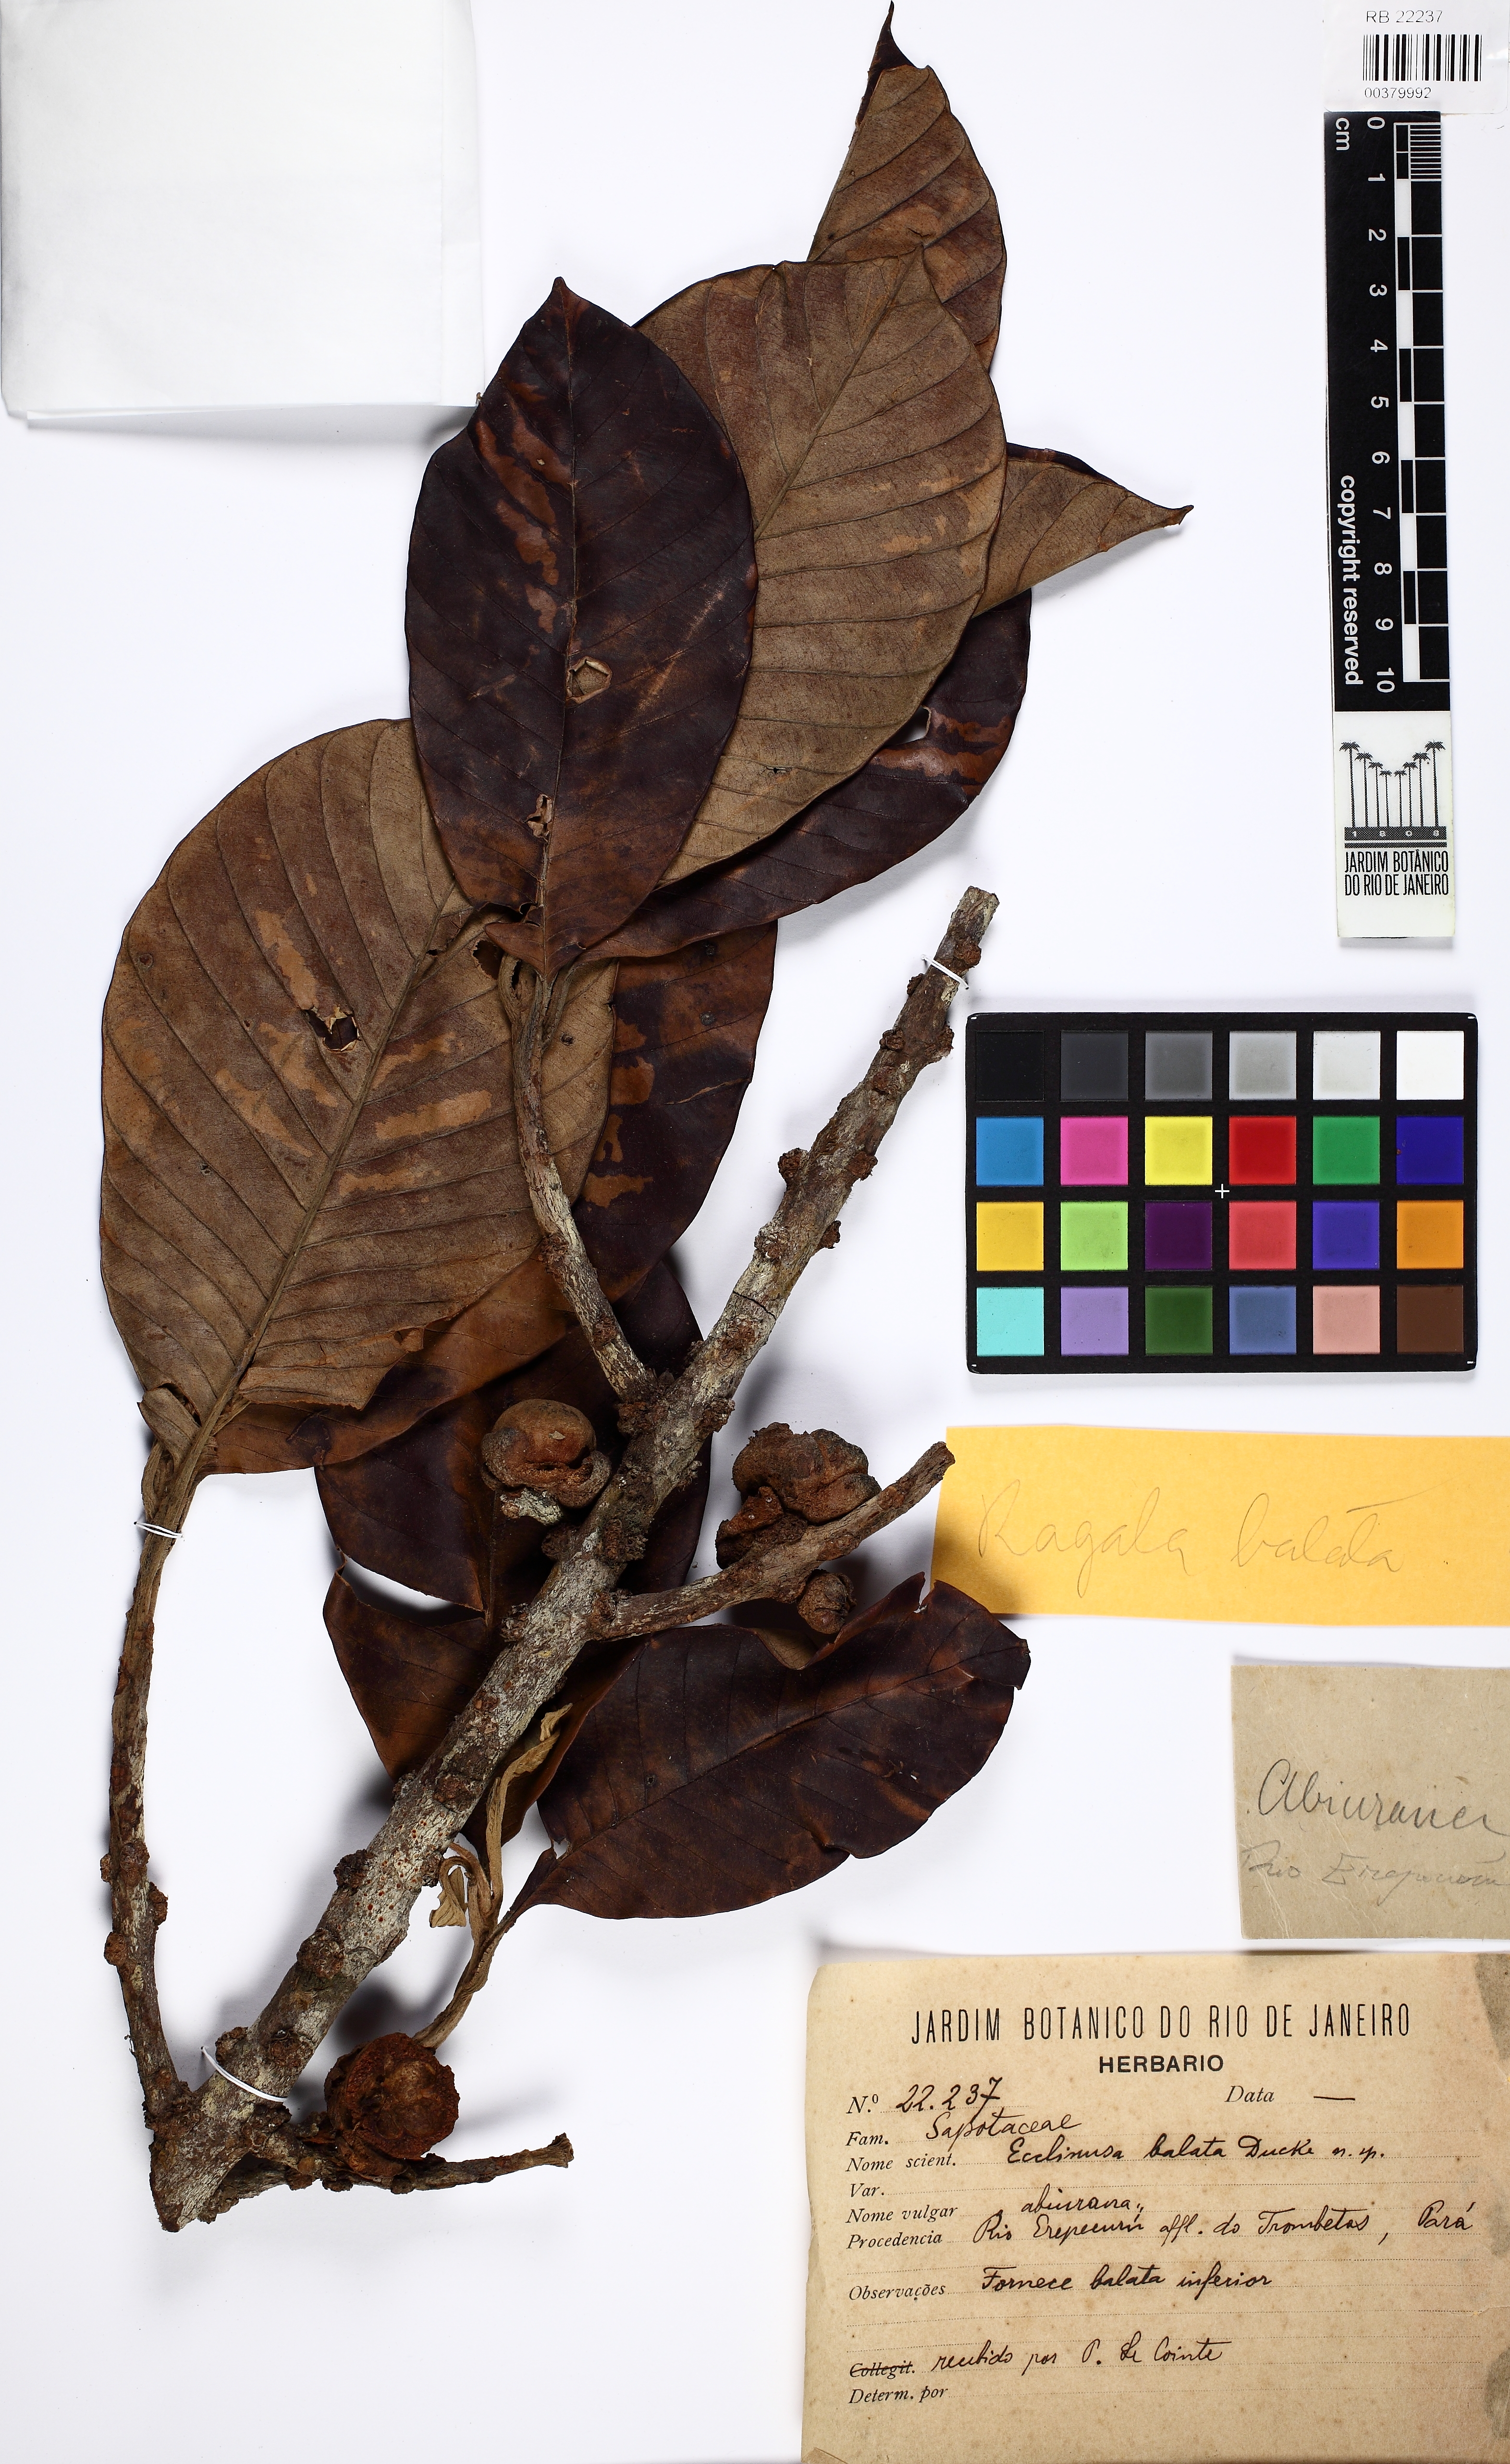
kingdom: Plantae
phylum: Tracheophyta
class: Magnoliopsida
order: Ericales
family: Sapotaceae
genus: Chrysophyllum
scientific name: Chrysophyllum
